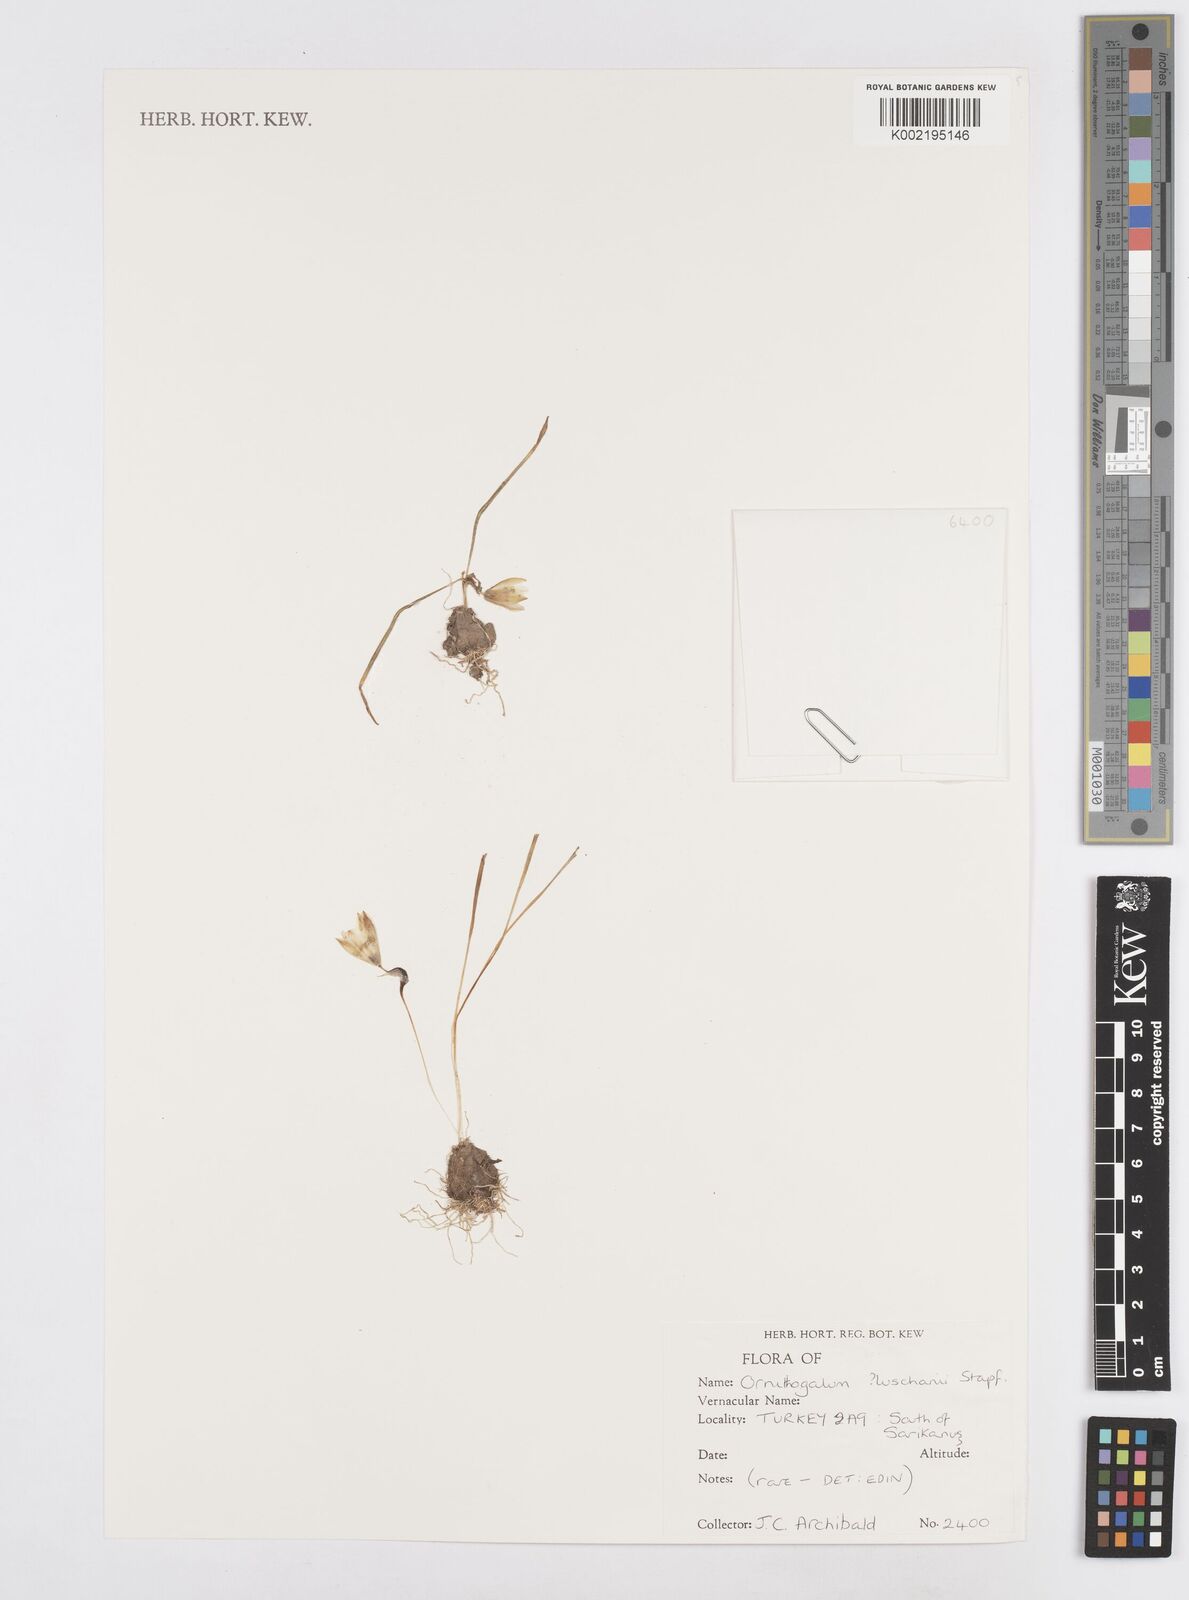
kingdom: Plantae
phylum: Tracheophyta
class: Liliopsida
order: Asparagales
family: Asparagaceae
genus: Ornithogalum
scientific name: Ornithogalum luschanii
